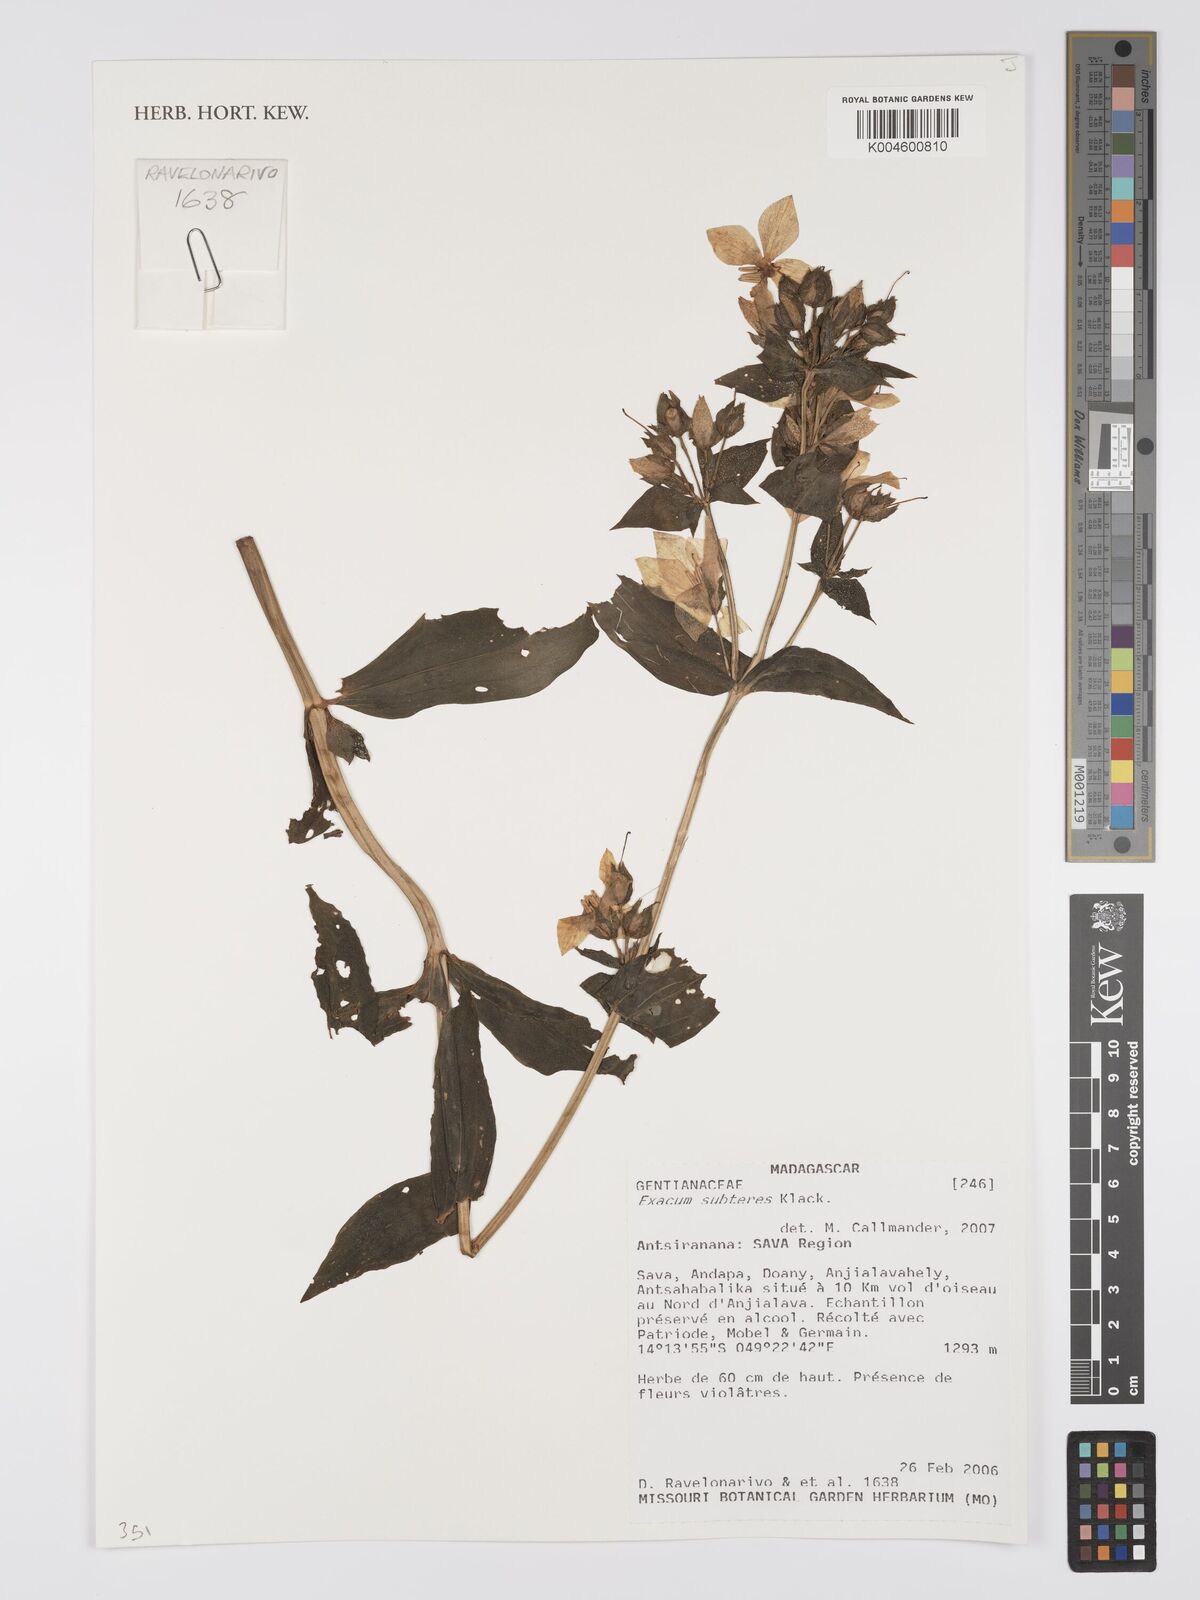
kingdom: Plantae
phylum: Tracheophyta
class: Magnoliopsida
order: Gentianales
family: Gentianaceae
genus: Exacum
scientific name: Exacum subteres
